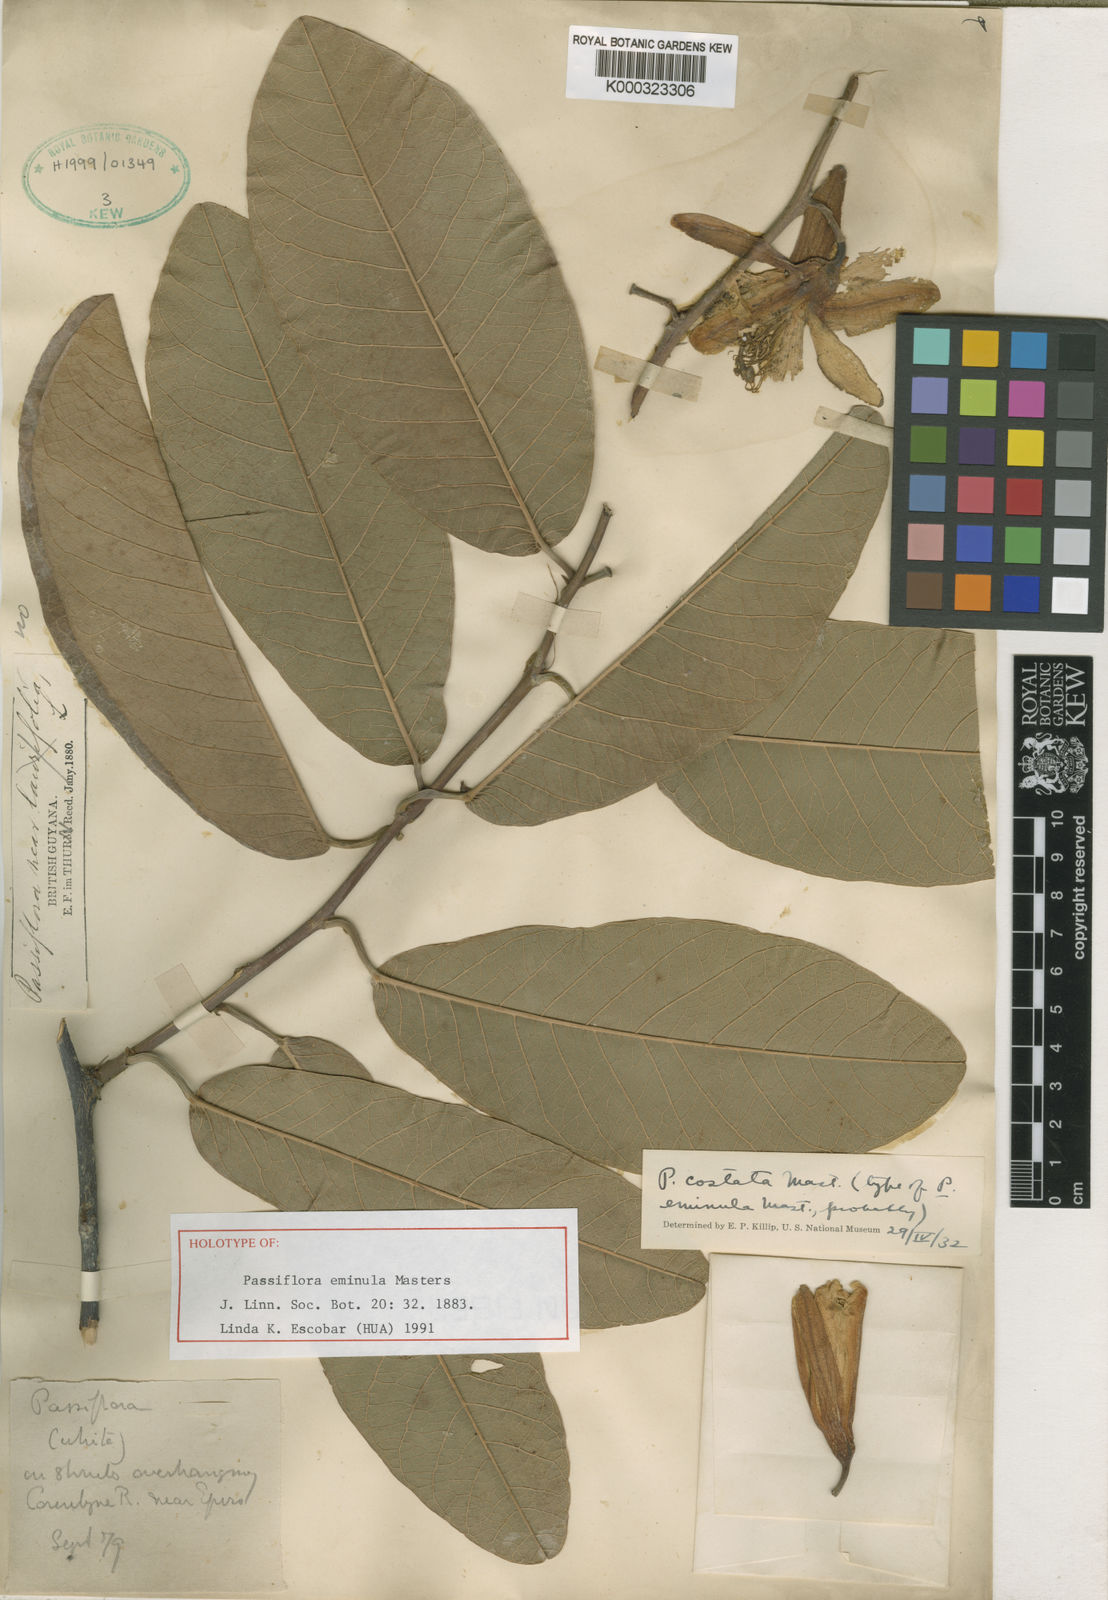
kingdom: Plantae
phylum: Tracheophyta
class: Magnoliopsida
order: Malpighiales
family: Passifloraceae
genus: Passiflora
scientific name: Passiflora costata
